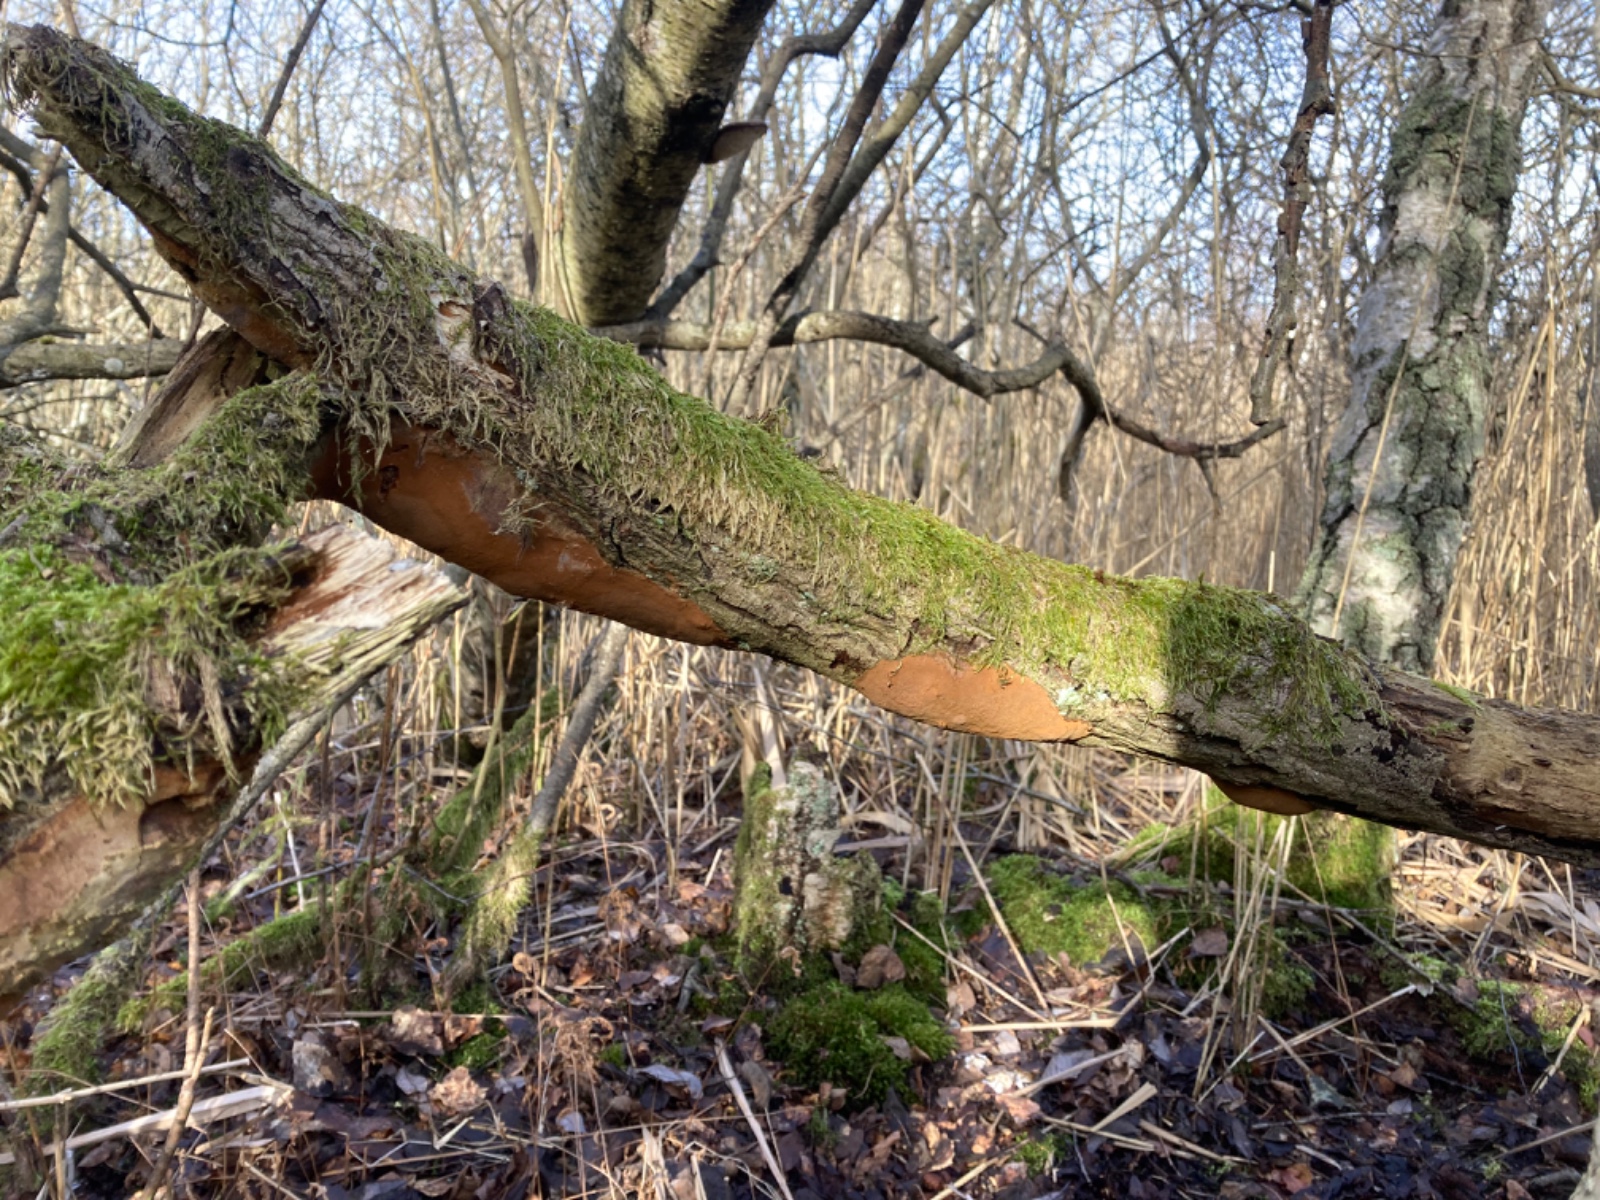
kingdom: Fungi
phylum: Basidiomycota
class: Agaricomycetes
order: Hymenochaetales
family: Hymenochaetaceae
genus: Fomitiporia
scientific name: Fomitiporia punctata
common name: pude-ildporesvamp
